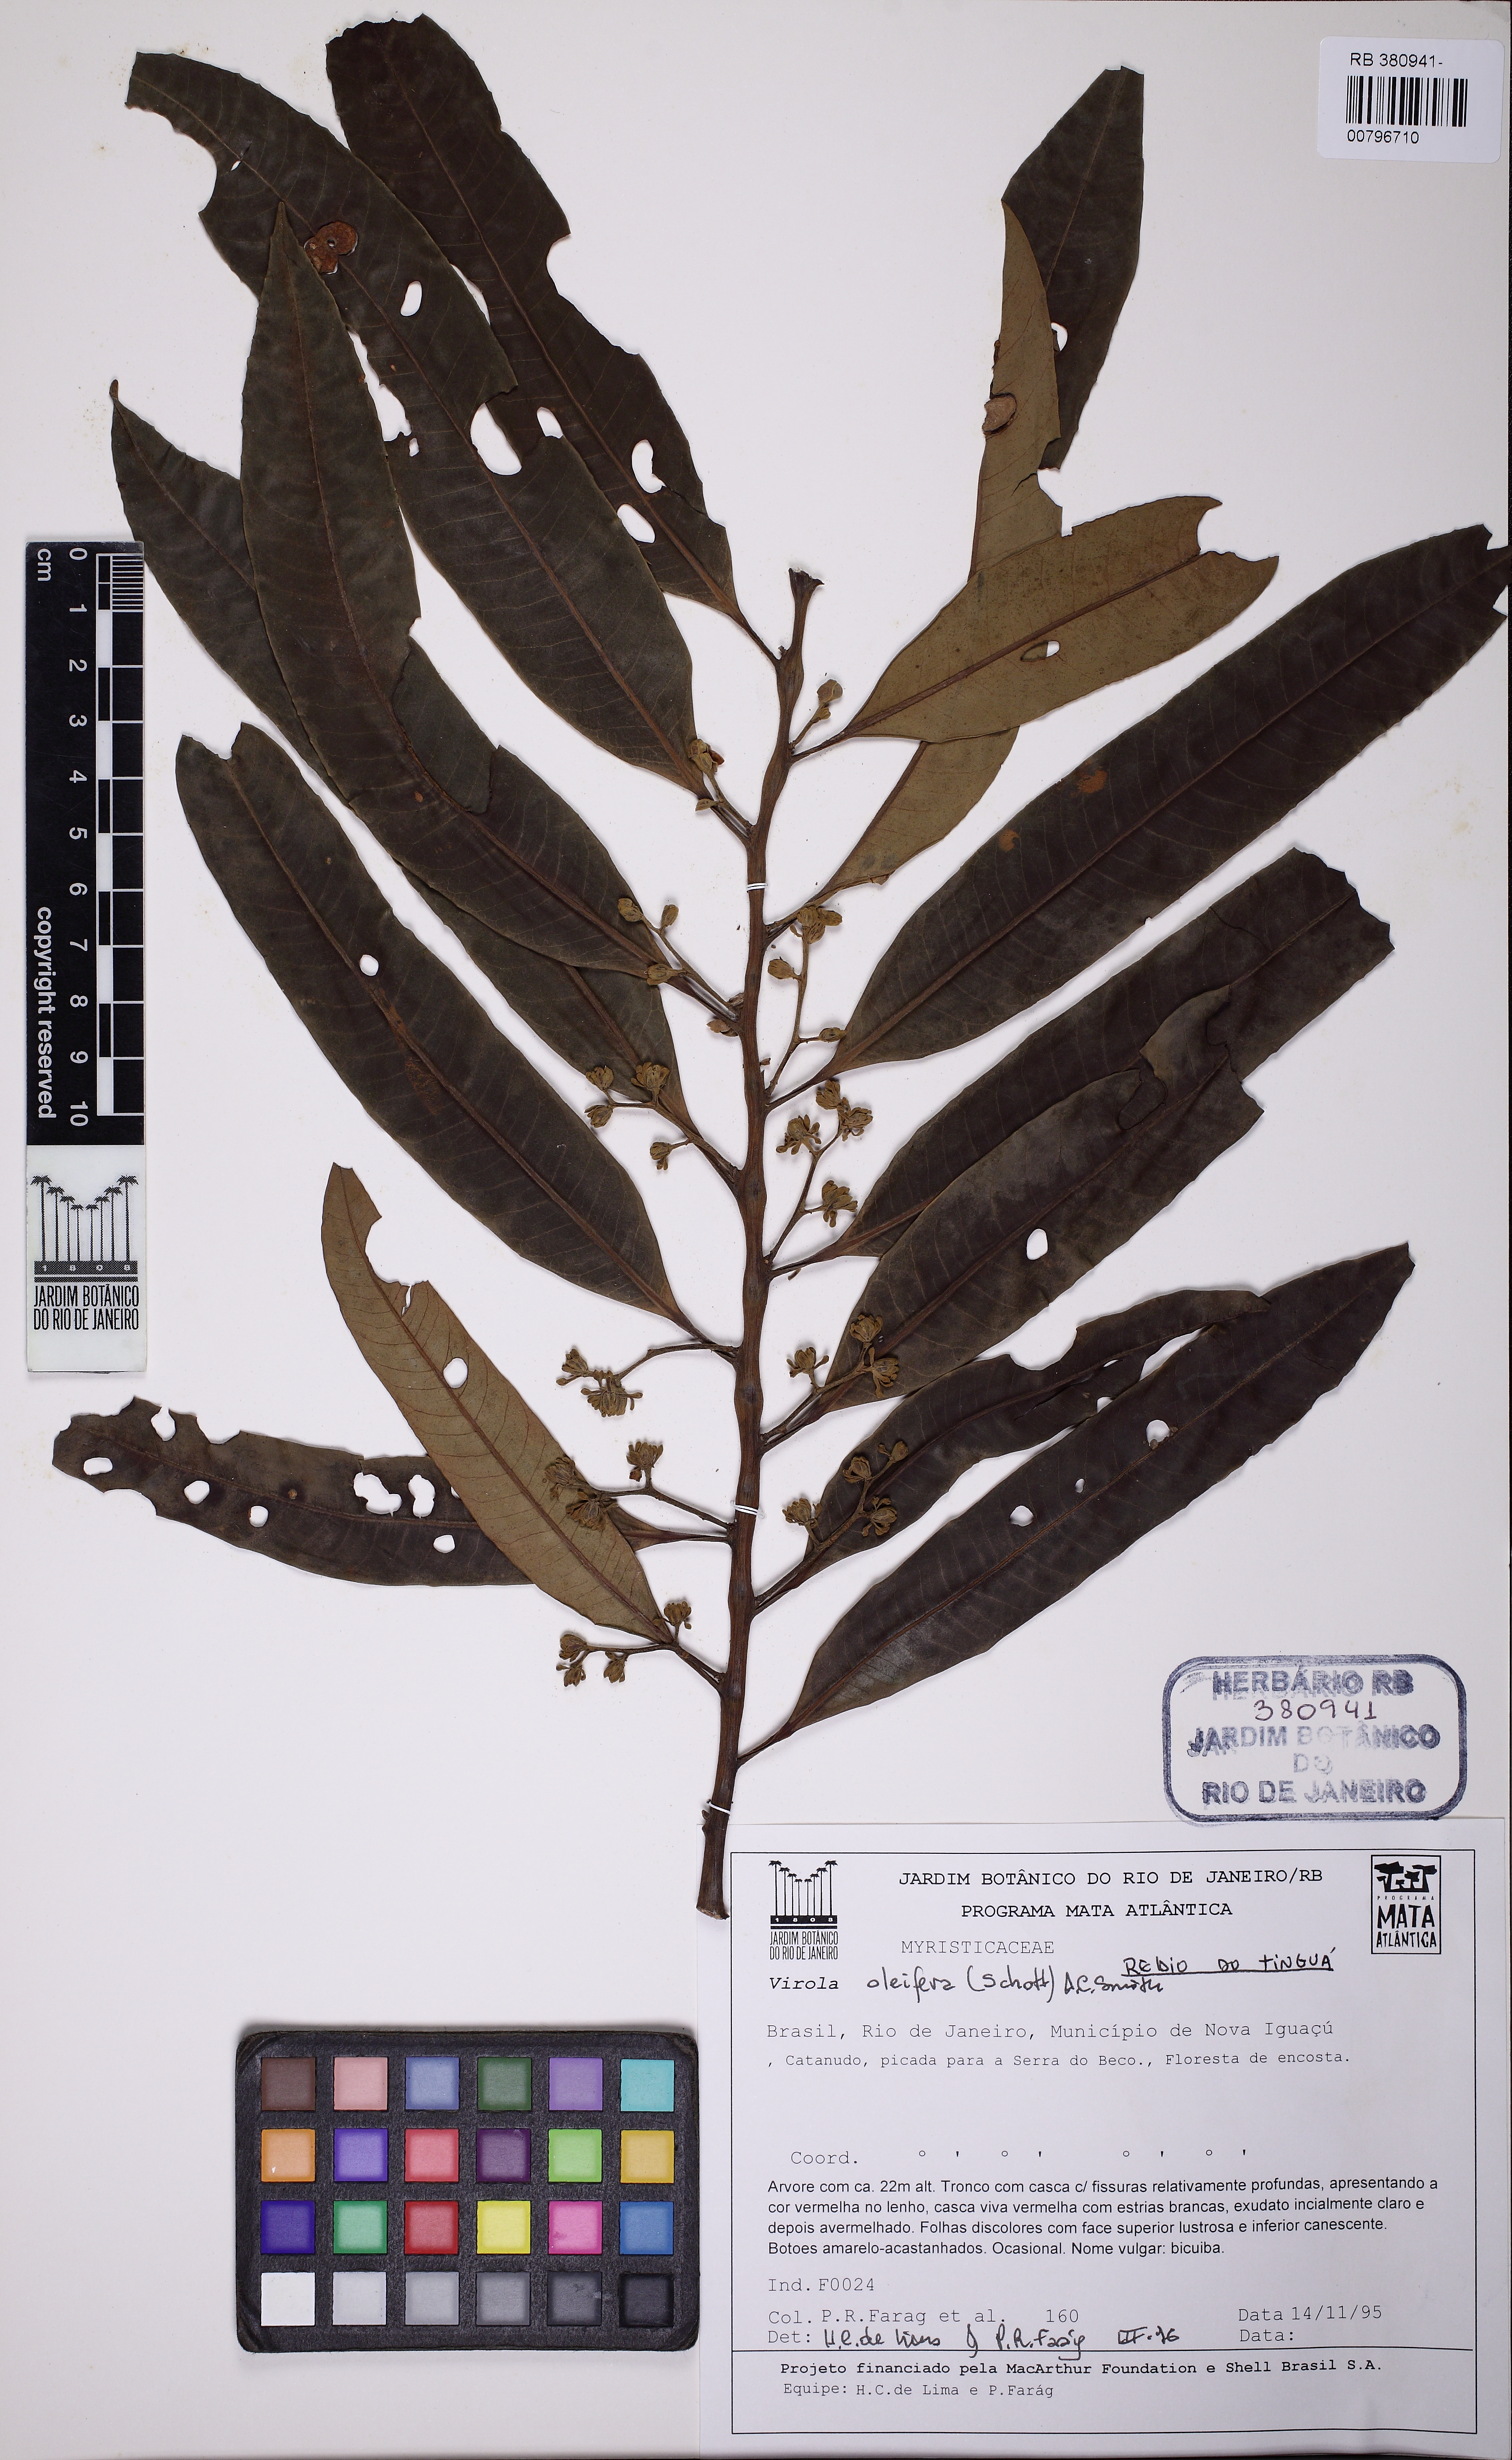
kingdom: Plantae
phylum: Tracheophyta
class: Magnoliopsida
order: Magnoliales
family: Myristicaceae
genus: Bicuiba
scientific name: Bicuiba oleifera
